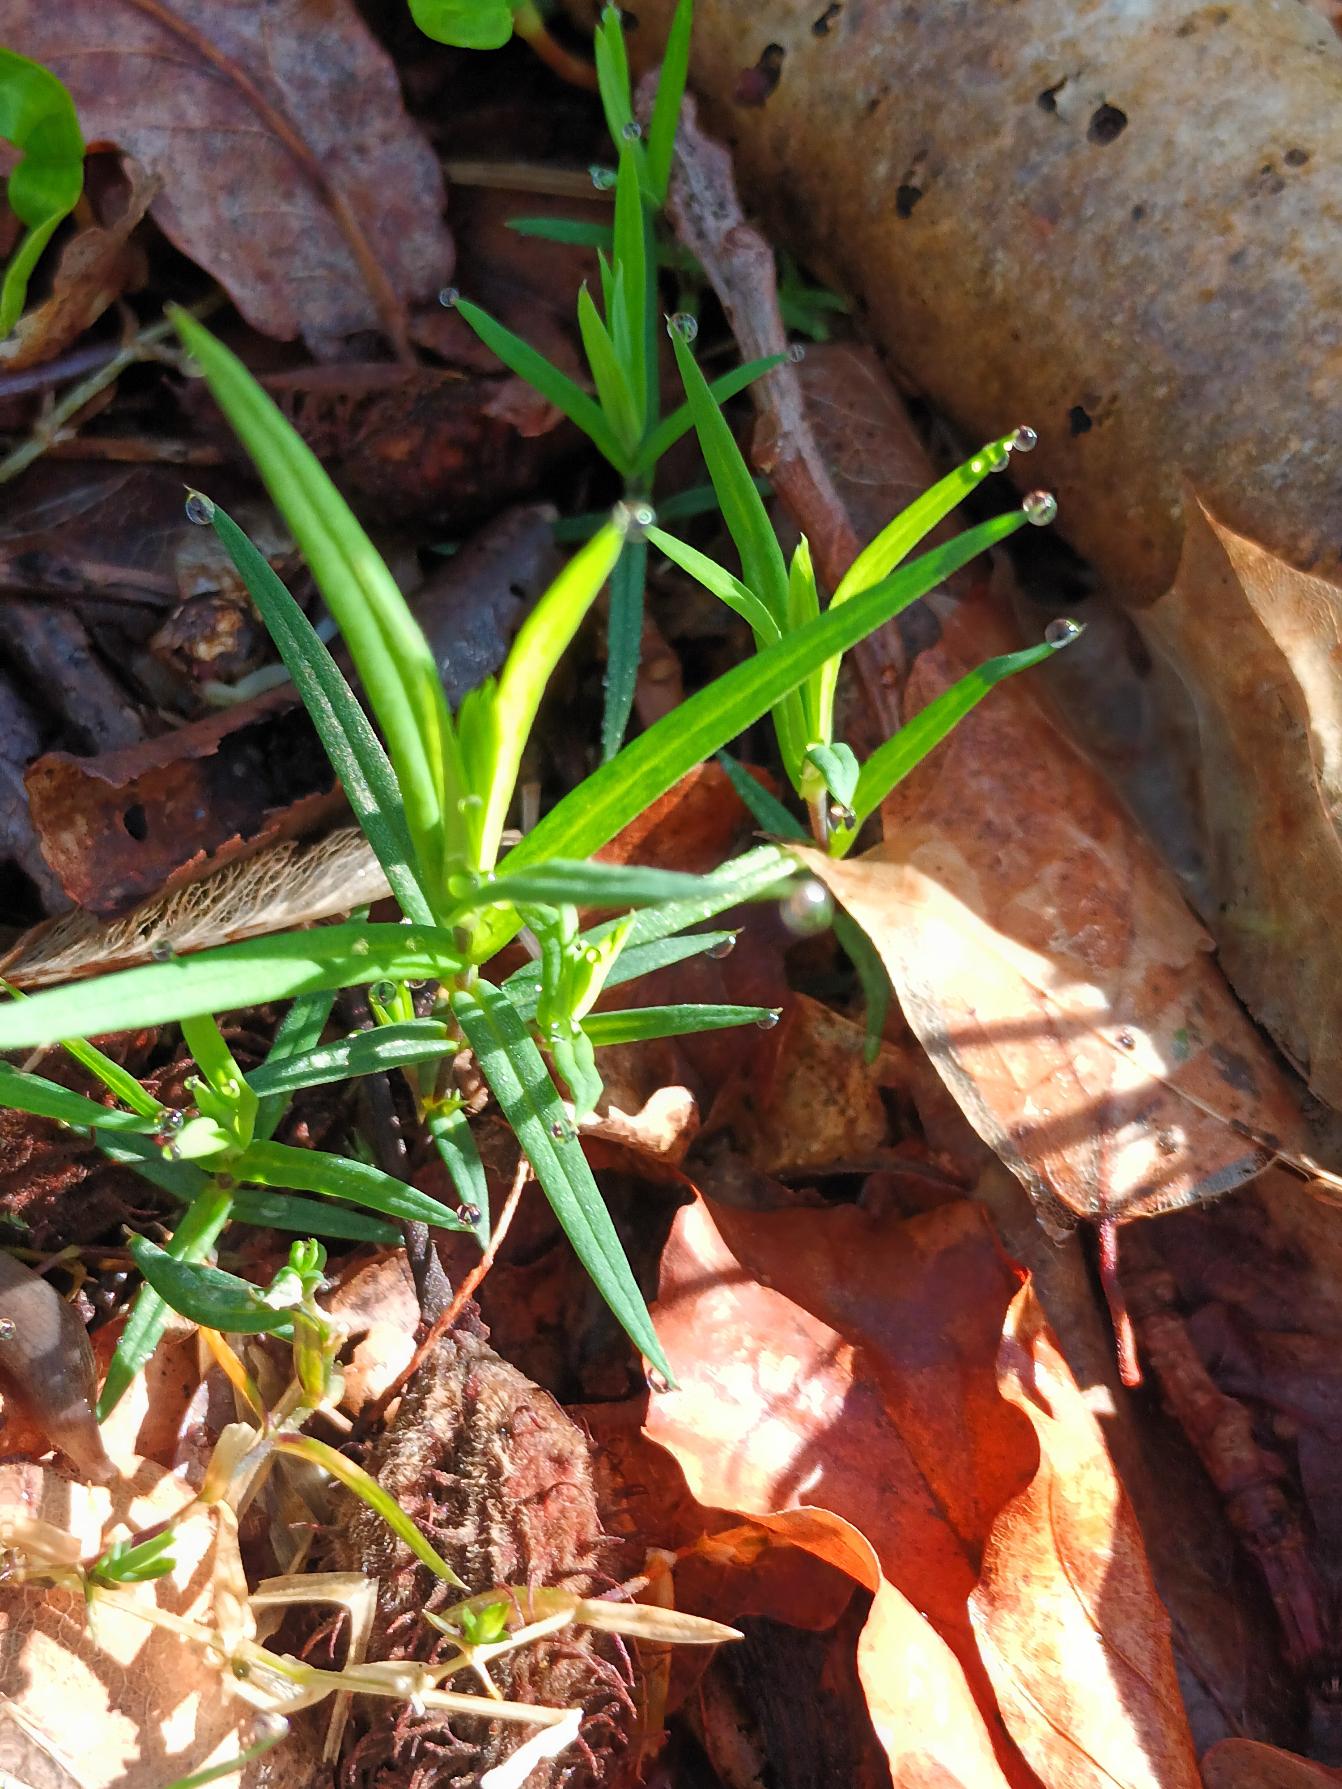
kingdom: Plantae
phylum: Tracheophyta
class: Magnoliopsida
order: Caryophyllales
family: Caryophyllaceae
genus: Rabelera
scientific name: Rabelera holostea
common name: Stor fladstjerne
